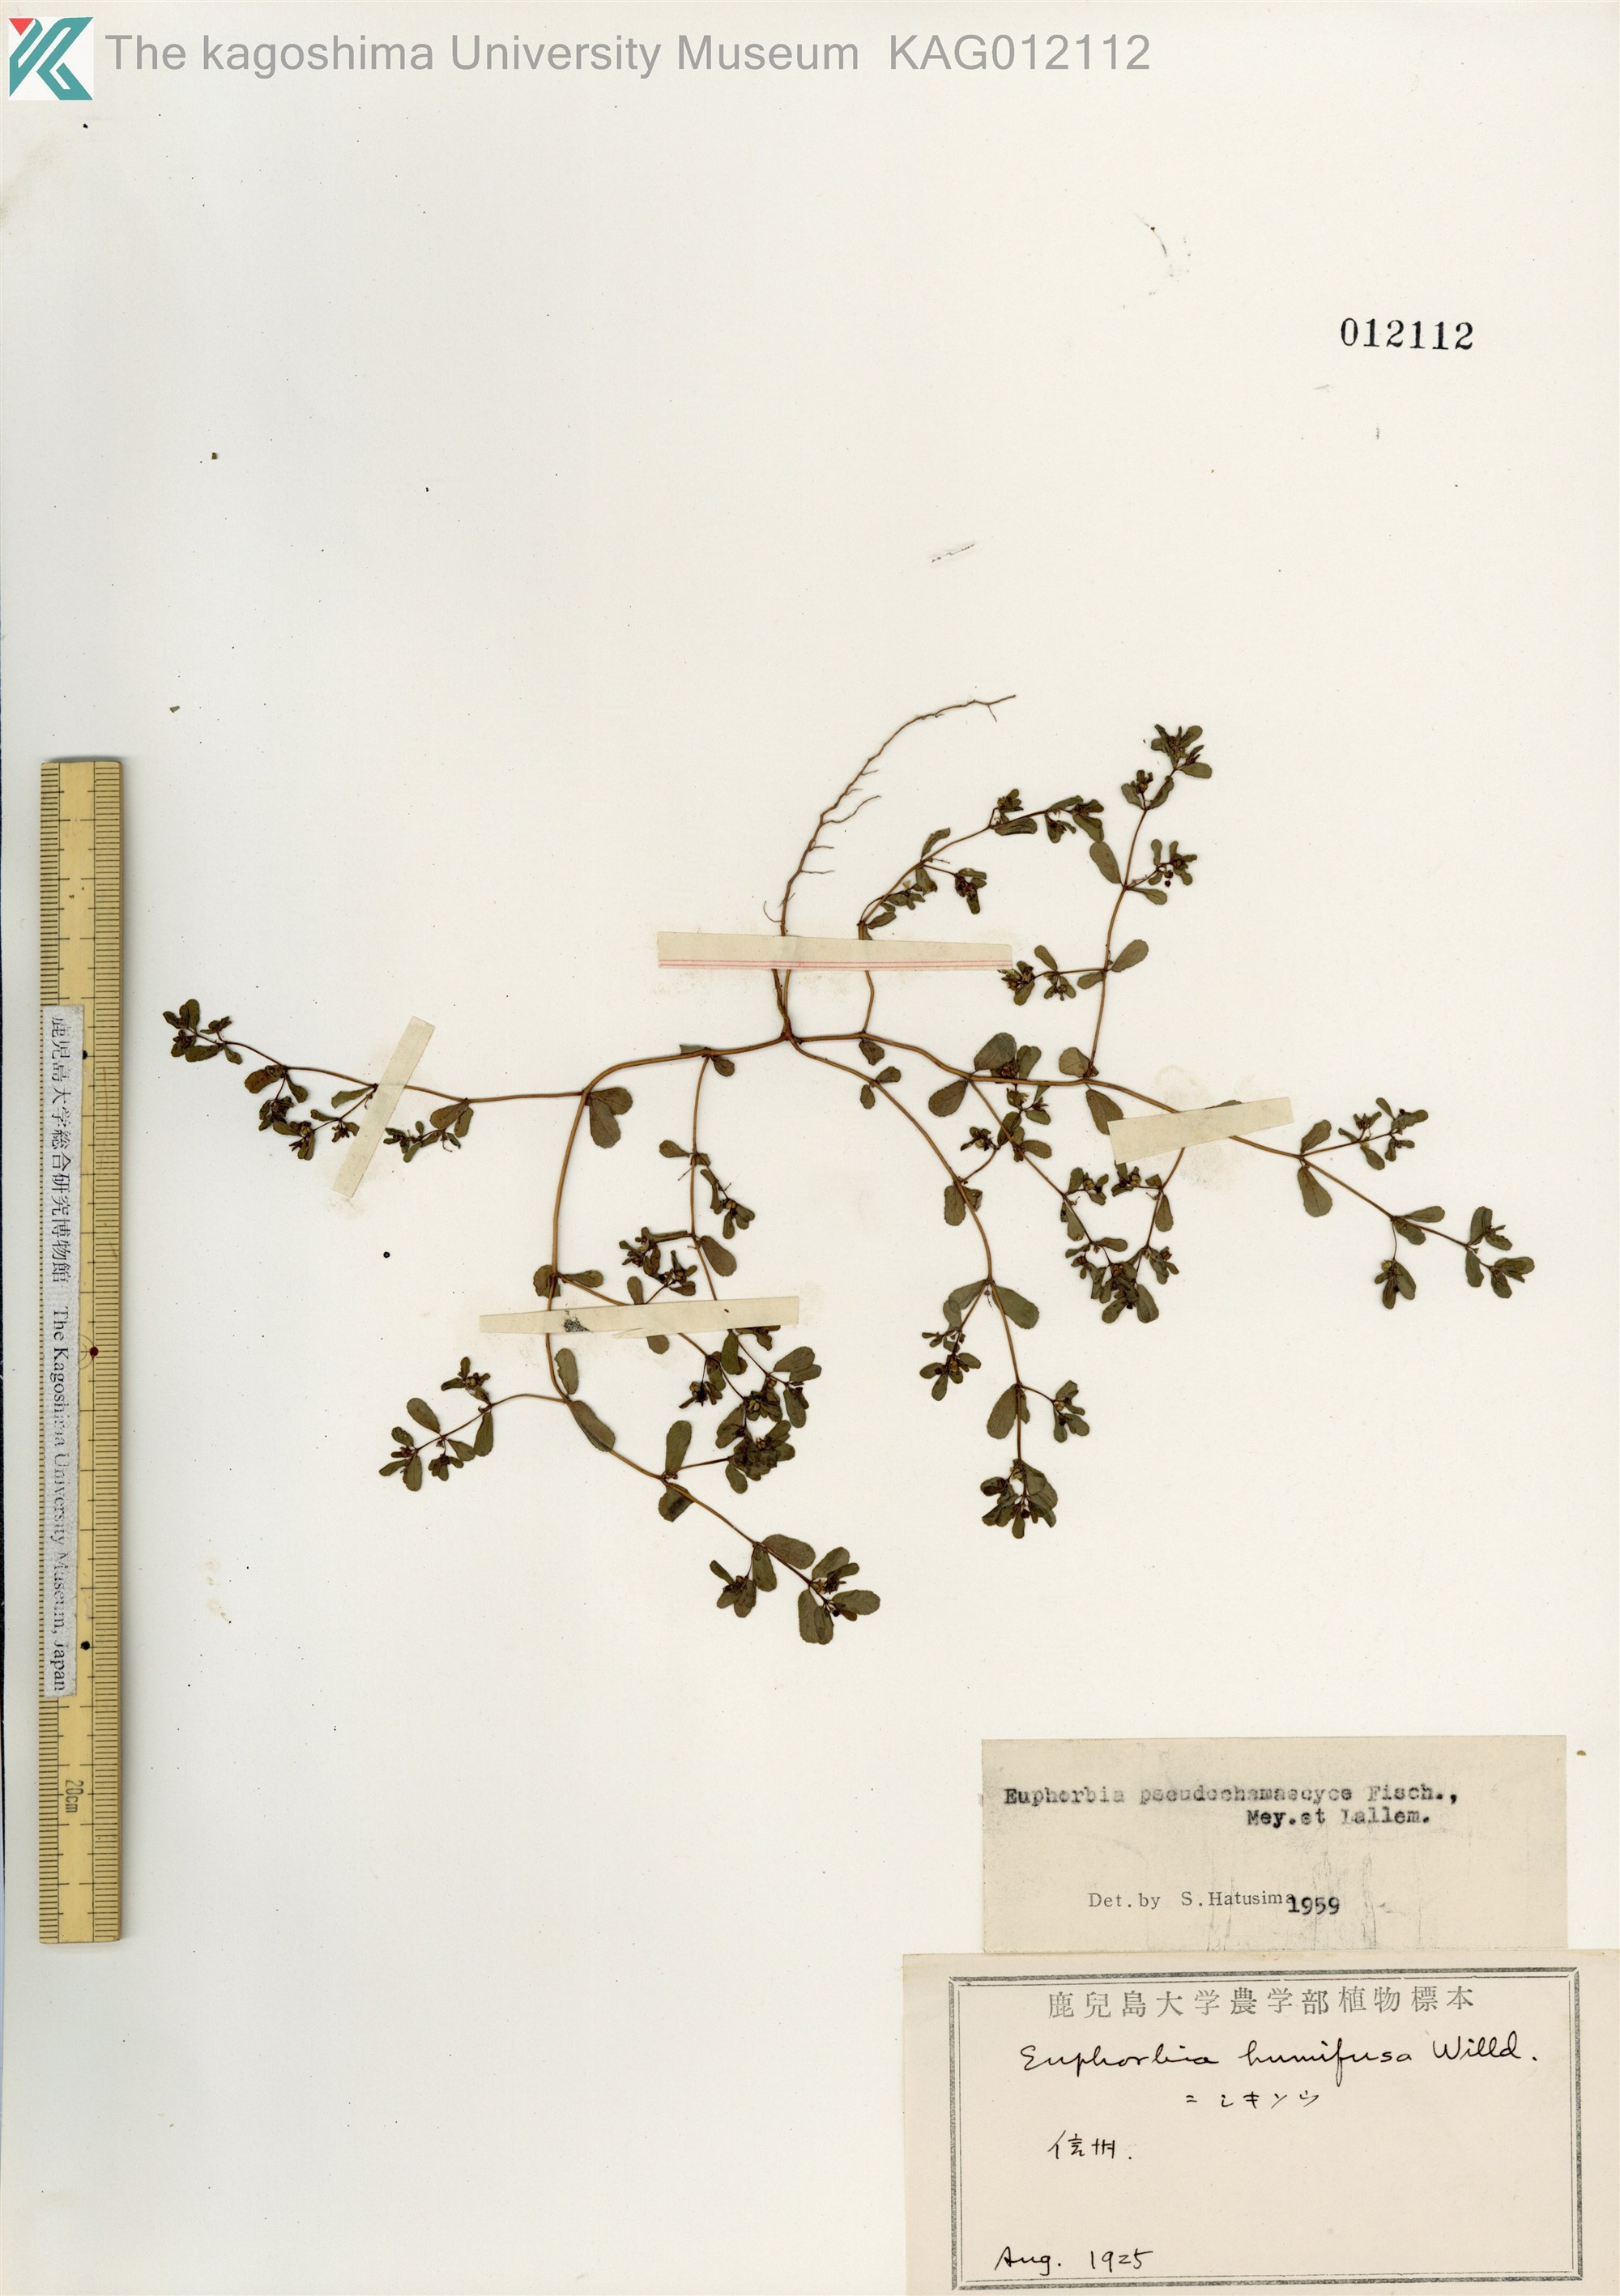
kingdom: Plantae
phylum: Tracheophyta
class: Magnoliopsida
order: Malpighiales
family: Euphorbiaceae
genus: Euphorbia
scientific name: Euphorbia humifusa
